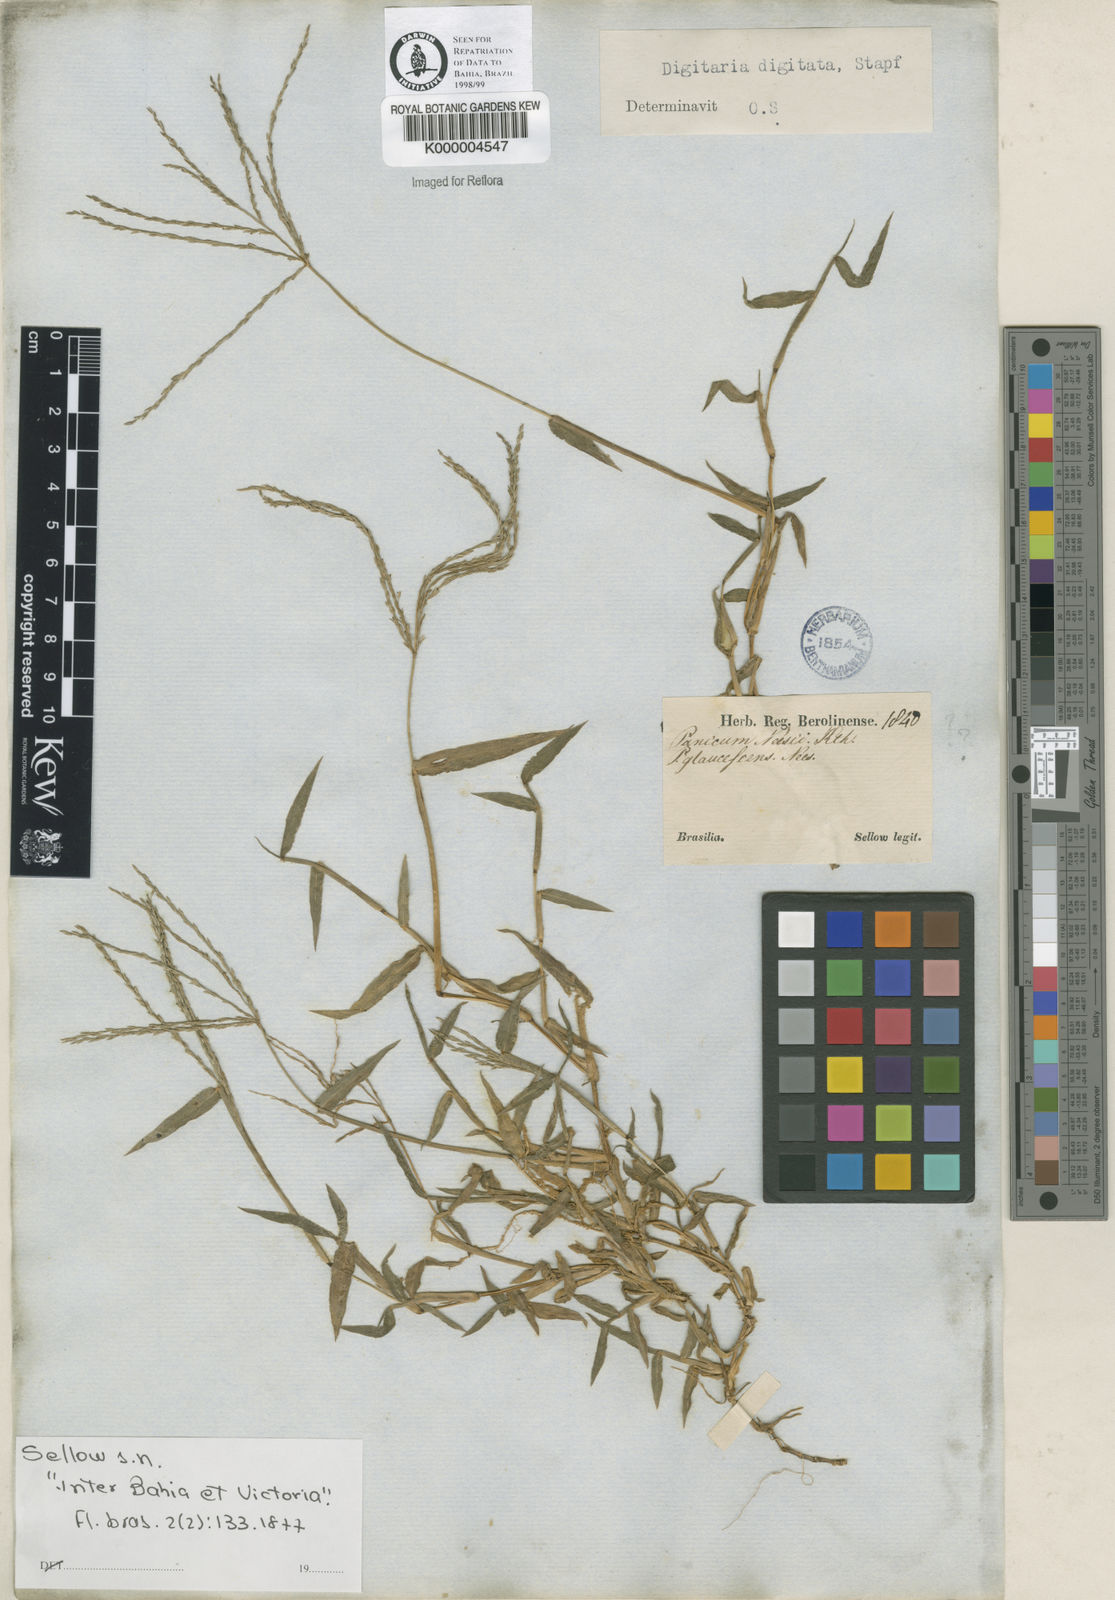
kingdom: Plantae
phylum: Tracheophyta
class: Liliopsida
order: Poales
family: Poaceae
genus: Digitaria
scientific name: Digitaria horizontalis
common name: Jamaican crabgrass
